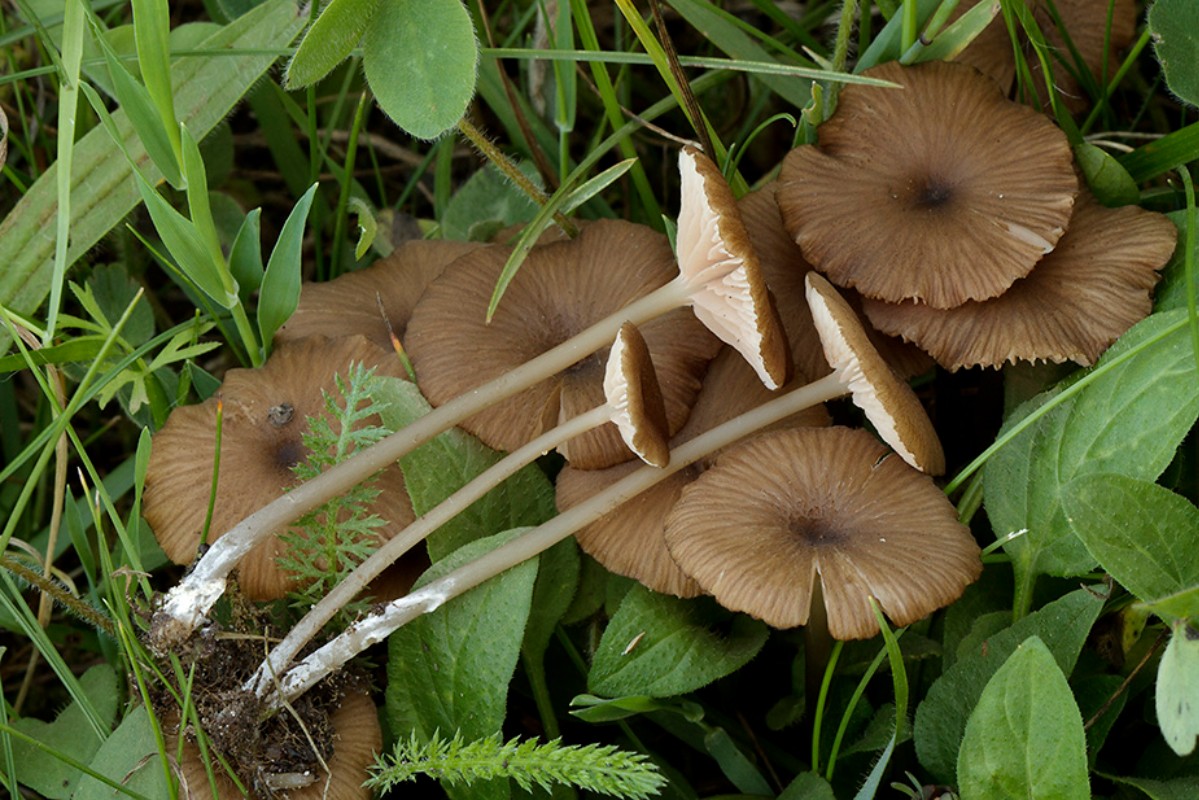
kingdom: Fungi
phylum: Basidiomycota
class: Agaricomycetes
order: Agaricales
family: Entolomataceae
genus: Entoloma
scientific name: Entoloma longistriatum
